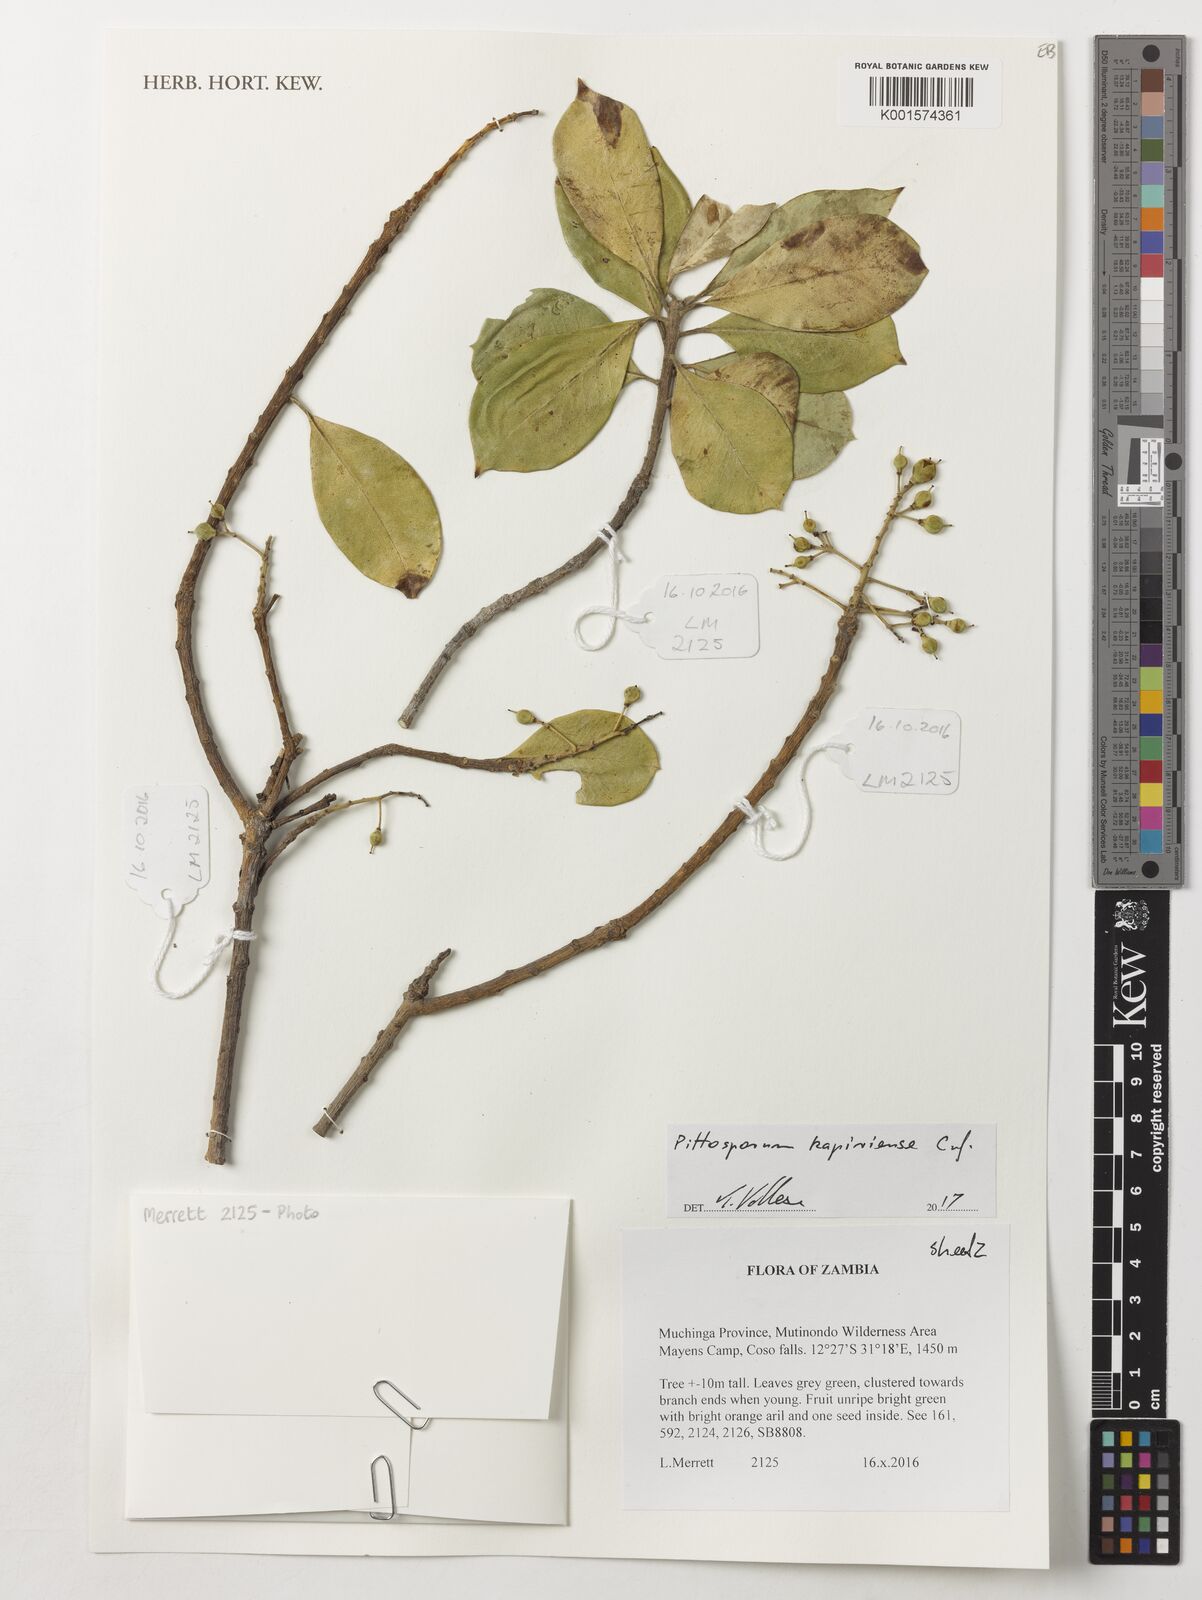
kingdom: Plantae
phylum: Tracheophyta
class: Magnoliopsida
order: Apiales
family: Pittosporaceae
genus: Pittosporum
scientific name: Pittosporum viridiflorum
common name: Cape cheesewood
